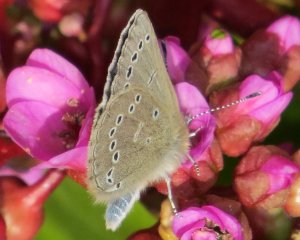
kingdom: Animalia
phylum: Arthropoda
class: Insecta
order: Lepidoptera
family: Lycaenidae
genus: Glaucopsyche
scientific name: Glaucopsyche lygdamus
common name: Silvery Blue
